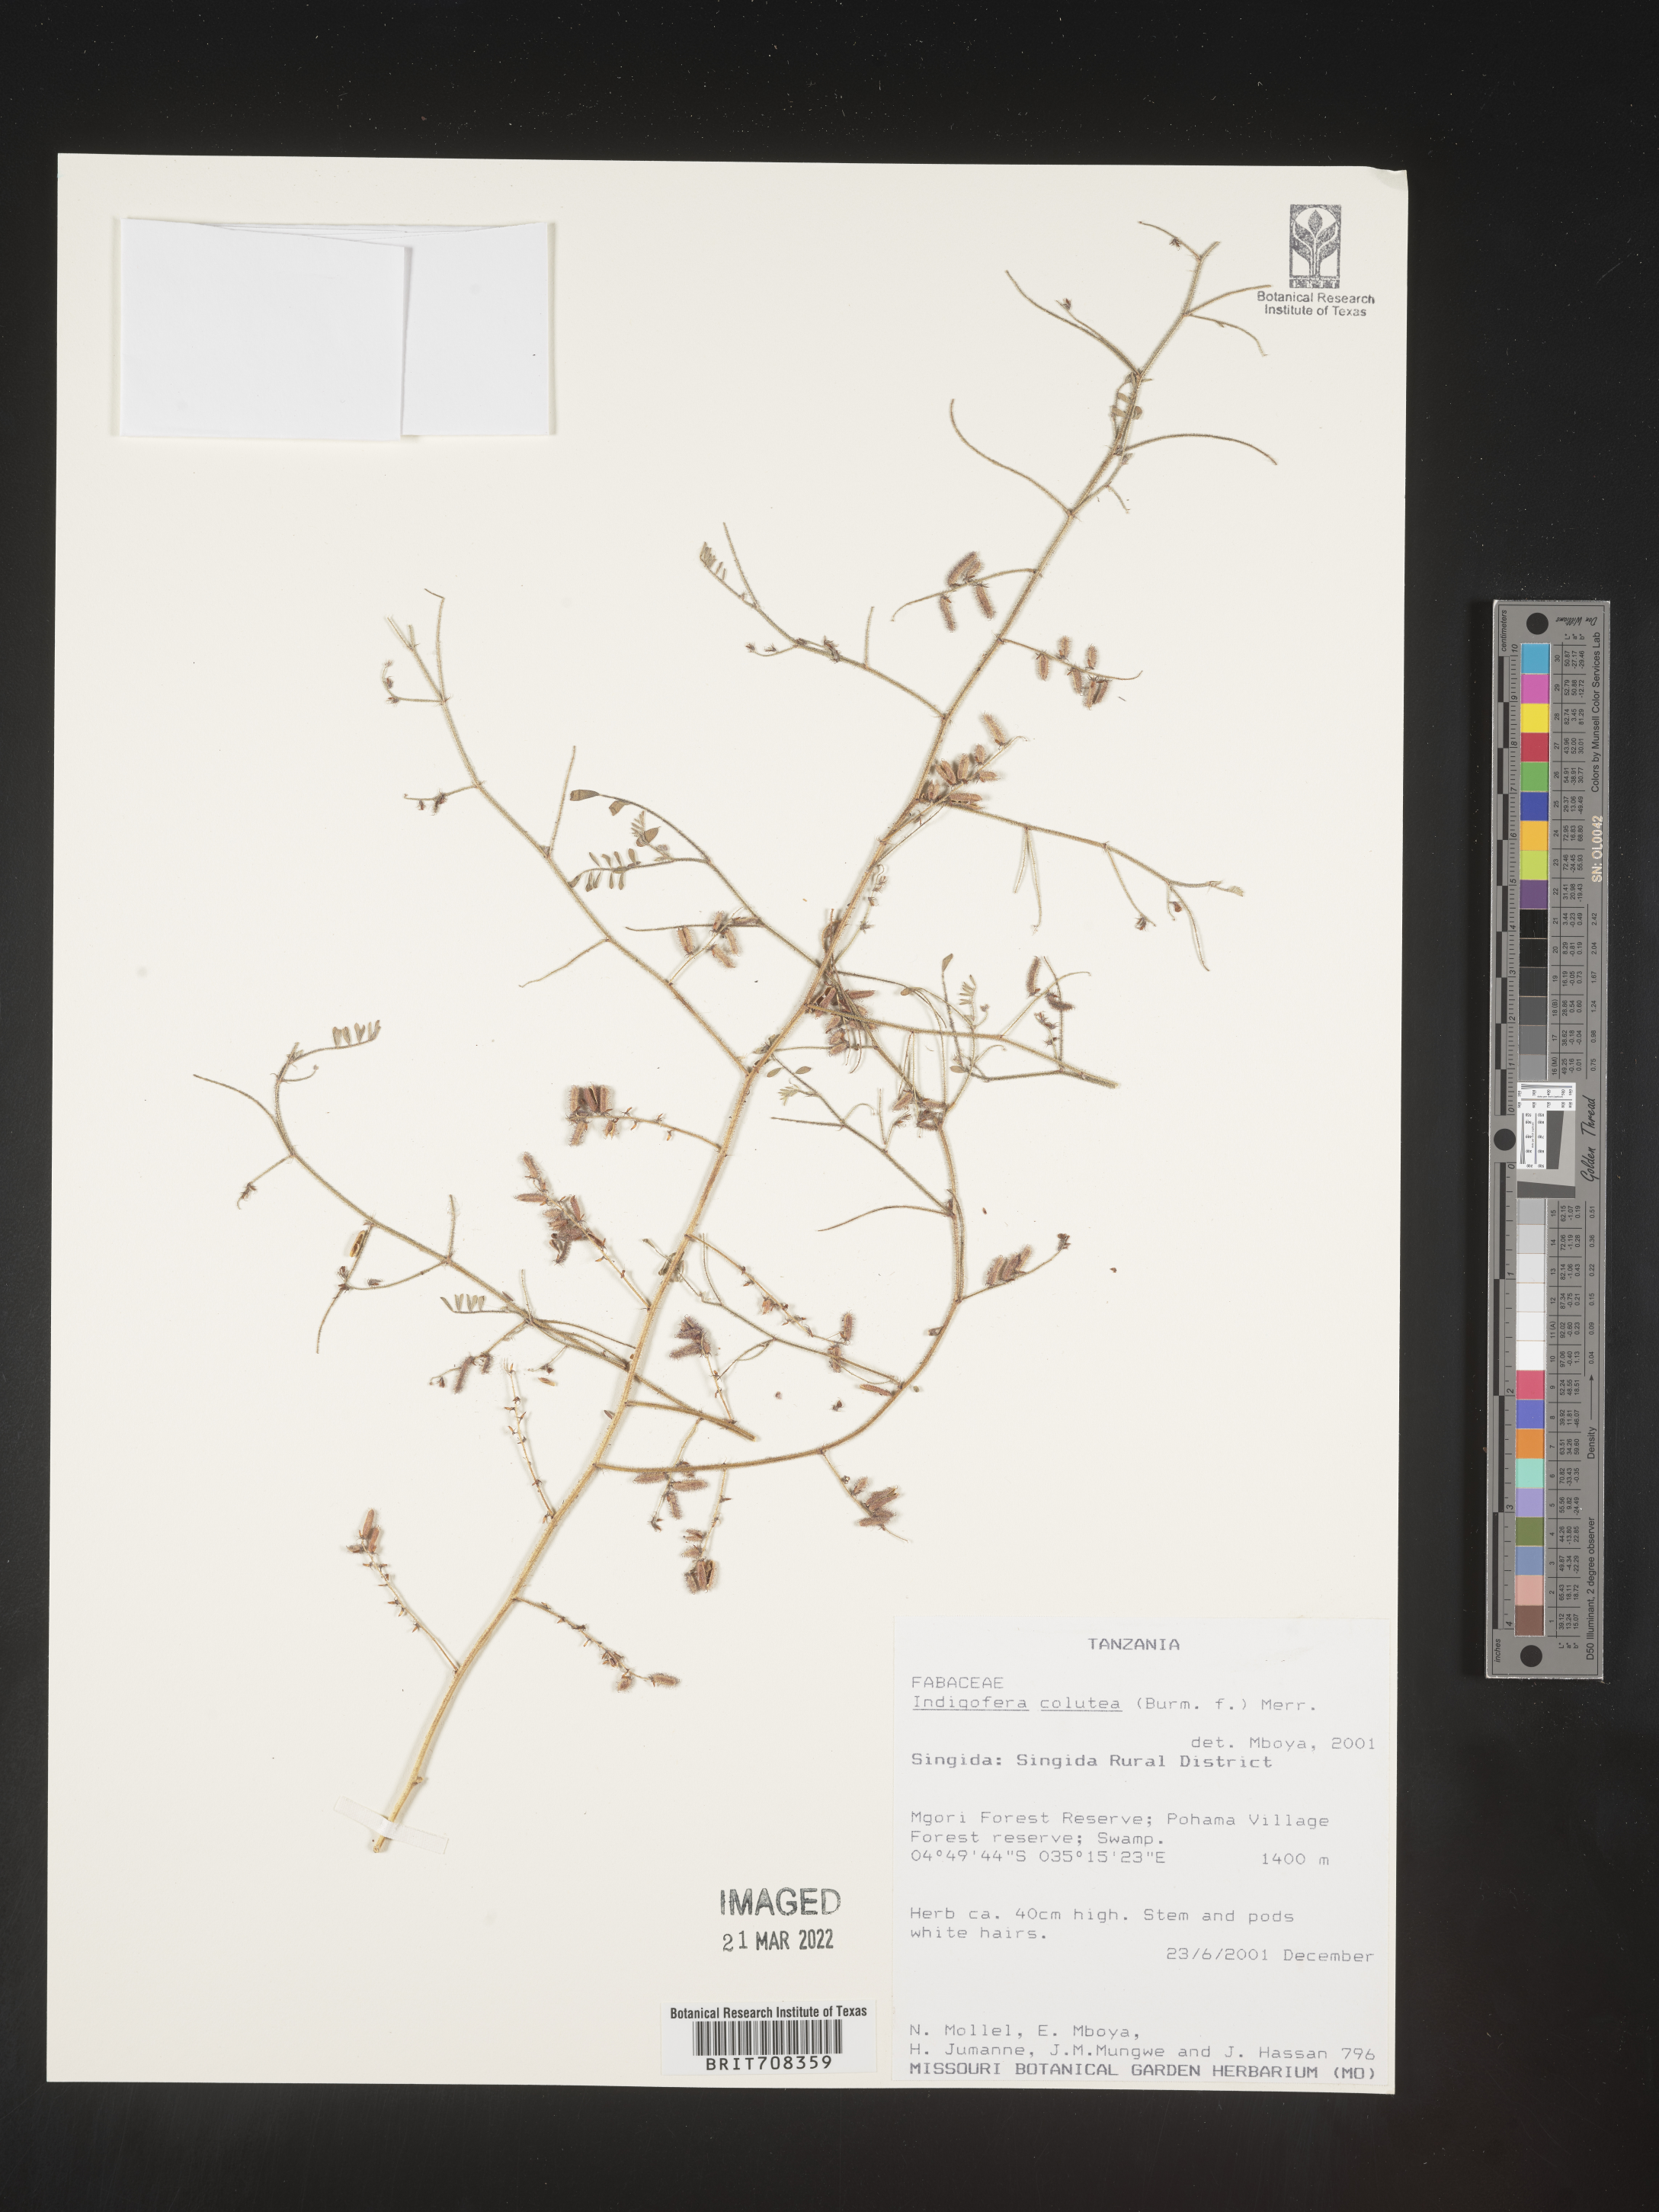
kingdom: Plantae
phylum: Tracheophyta
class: Magnoliopsida
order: Fabales
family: Fabaceae
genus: Indigofera
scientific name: Indigofera
